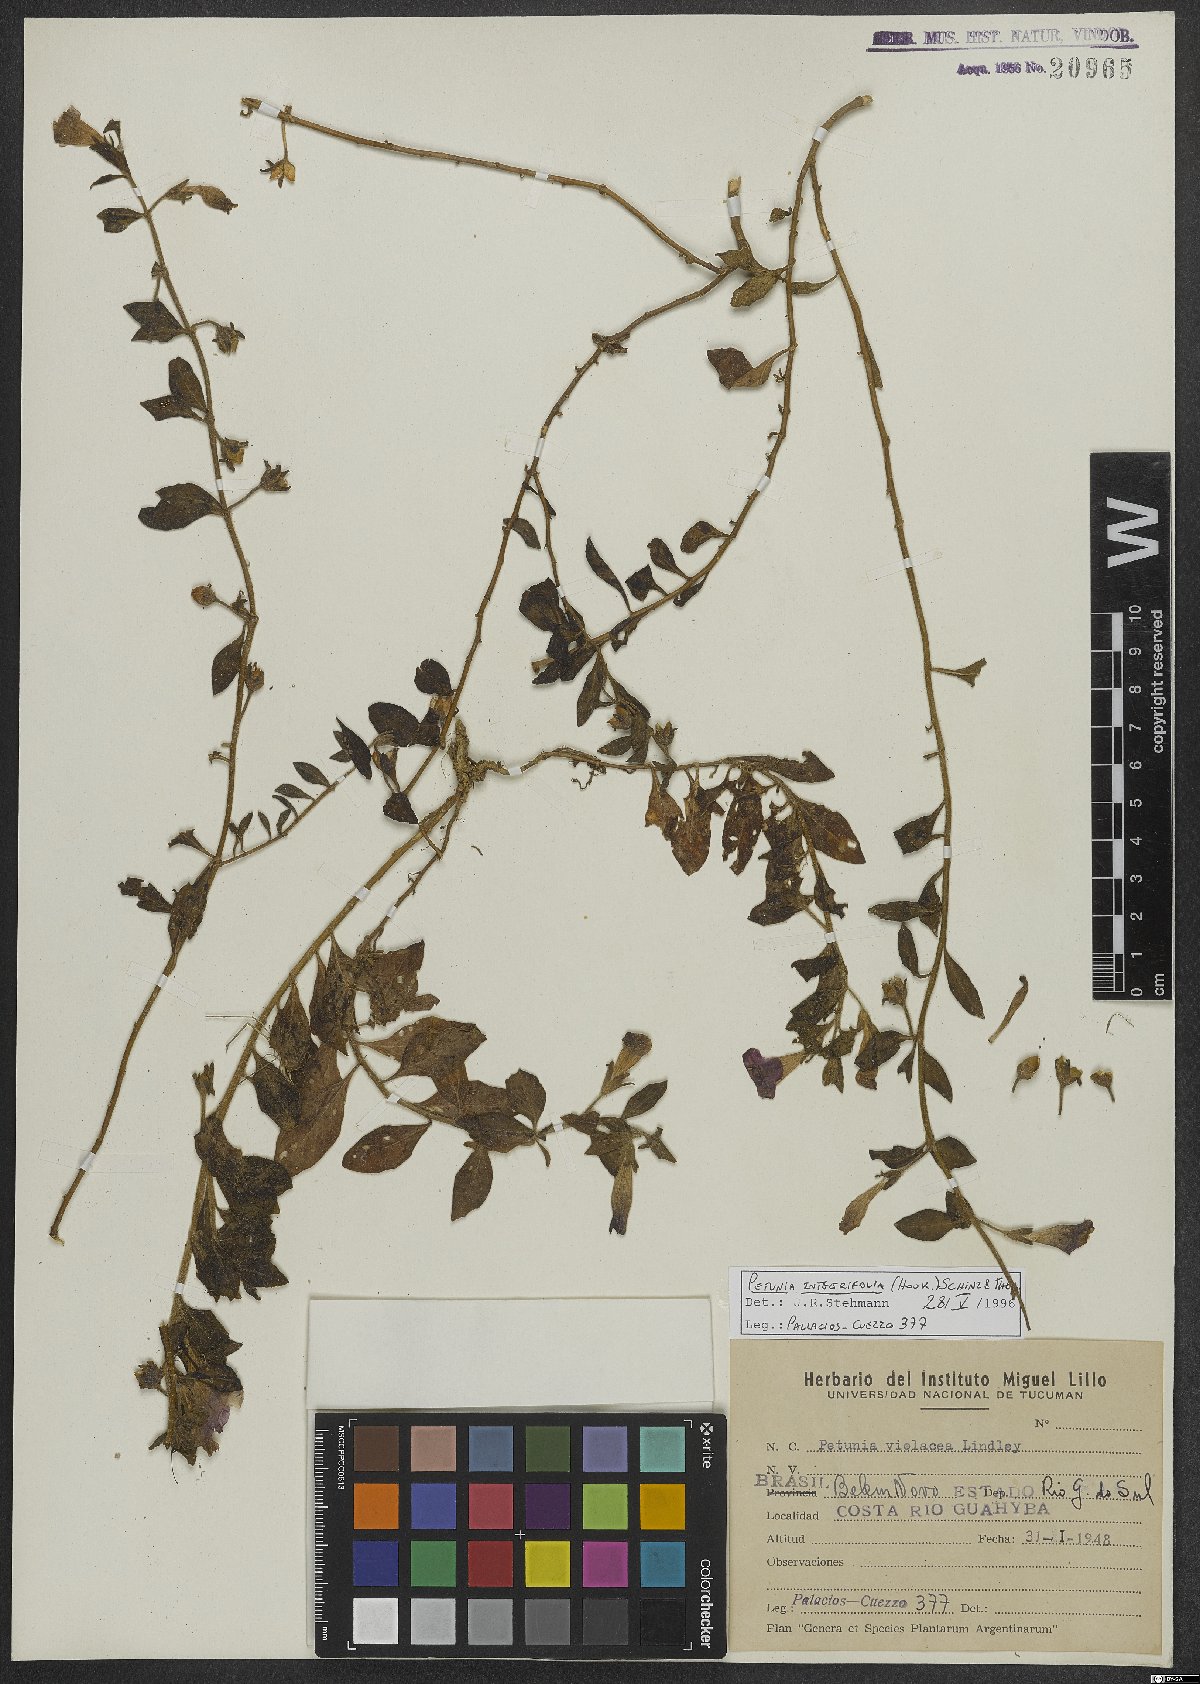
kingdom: Plantae
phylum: Tracheophyta
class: Magnoliopsida
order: Solanales
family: Solanaceae
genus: Petunia
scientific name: Petunia integrifolia
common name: Violet-flower petunia
